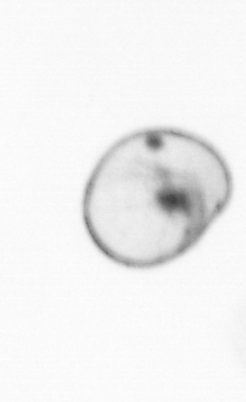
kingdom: Chromista
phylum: Myzozoa
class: Dinophyceae
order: Noctilucales
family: Noctilucaceae
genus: Noctiluca
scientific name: Noctiluca scintillans
